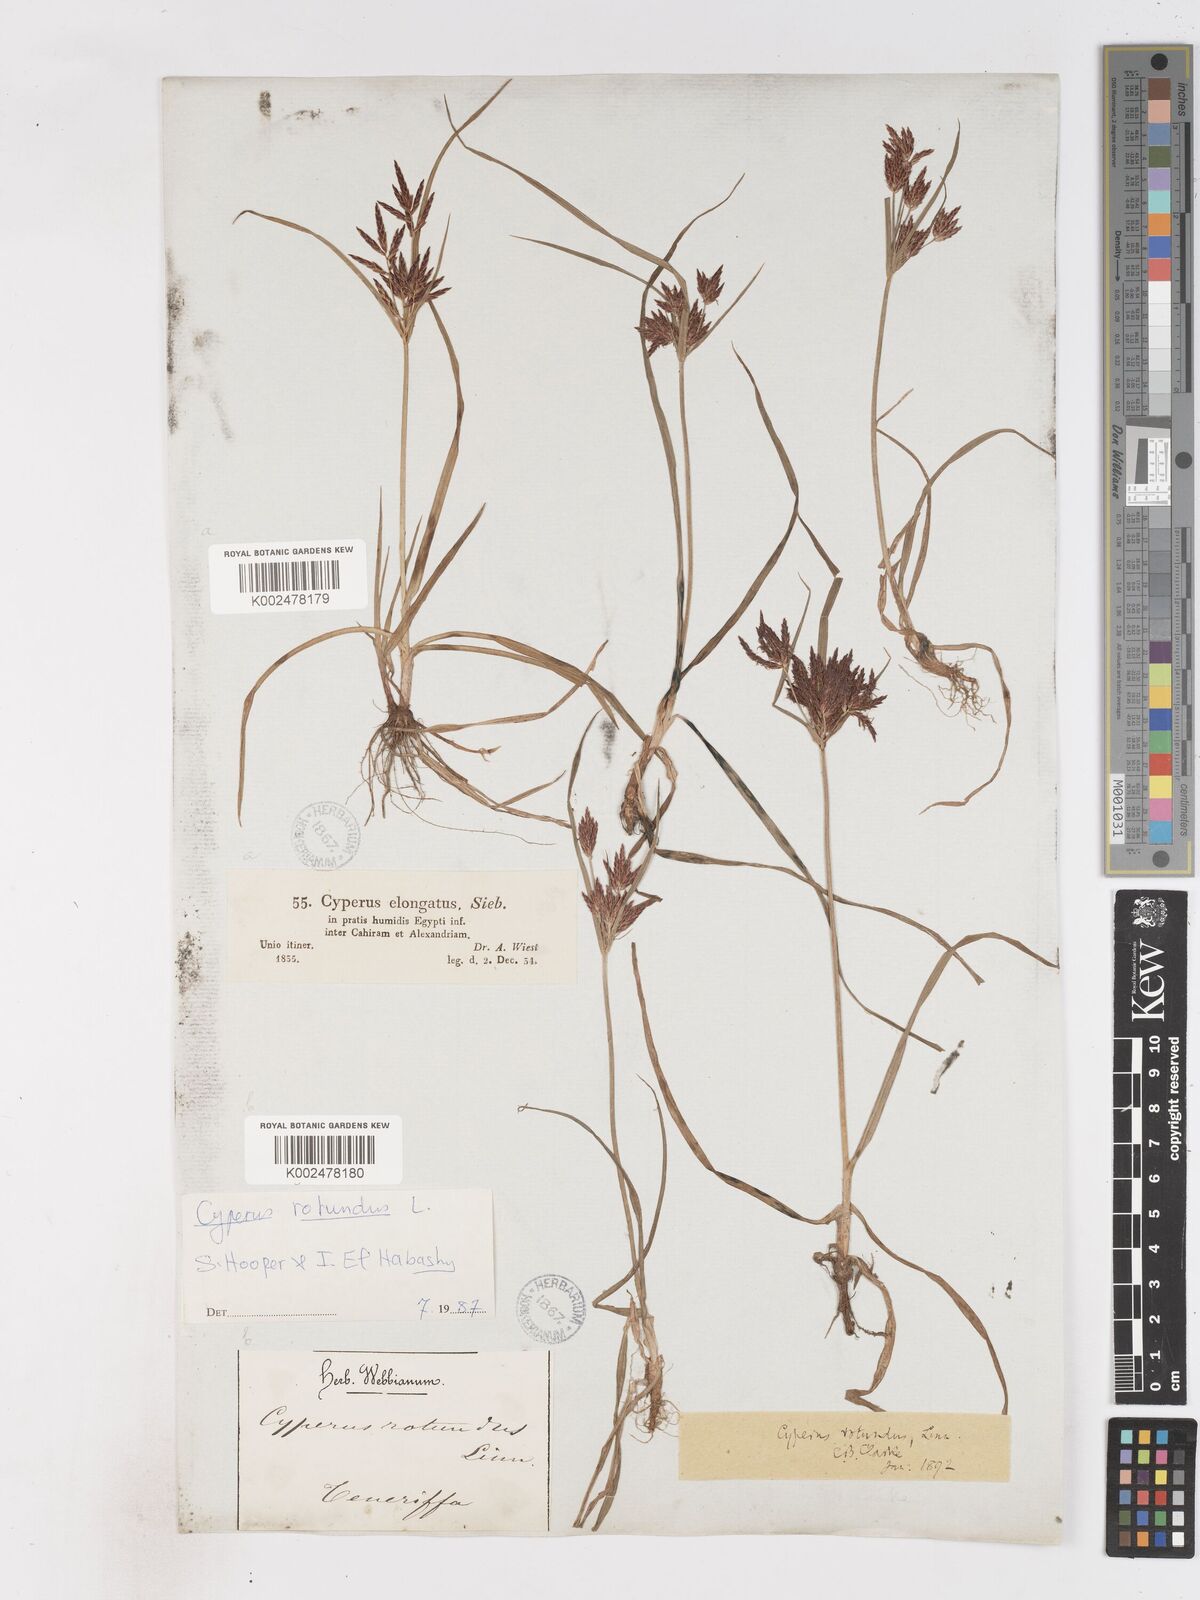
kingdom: Plantae
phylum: Tracheophyta
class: Liliopsida
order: Poales
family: Cyperaceae
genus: Cyperus
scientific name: Cyperus rotundus
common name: Nutgrass
